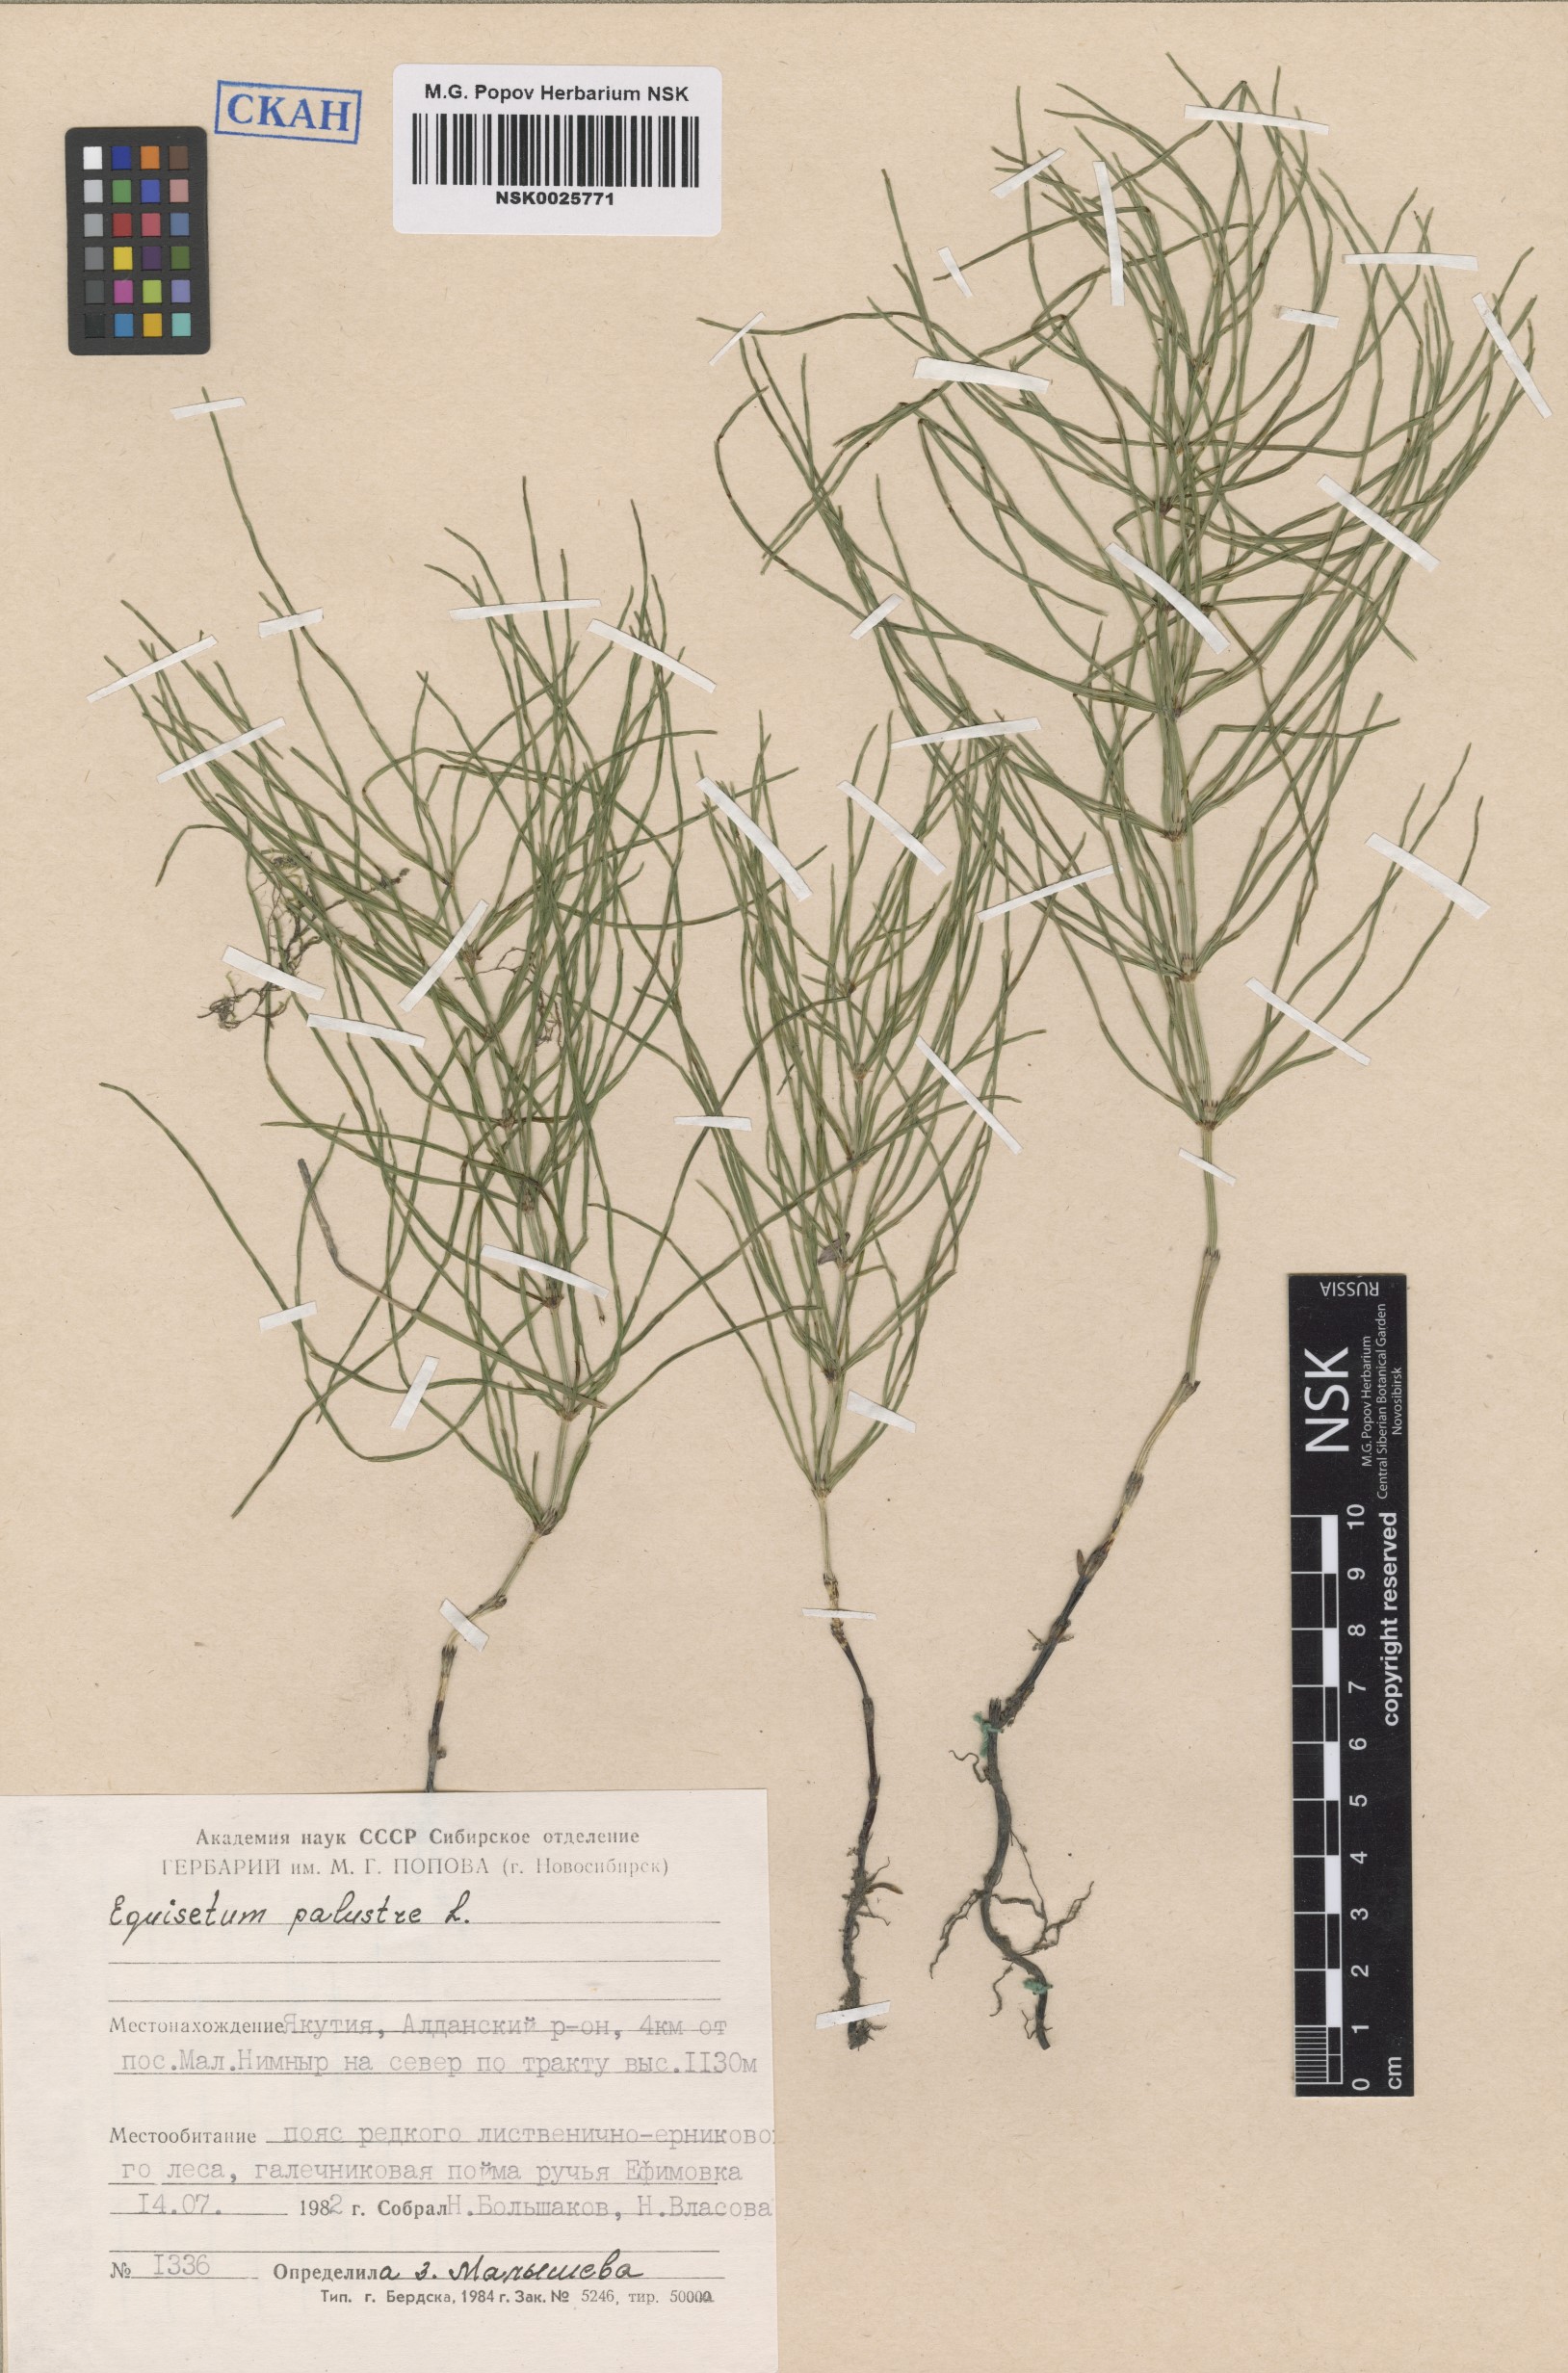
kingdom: Plantae
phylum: Tracheophyta
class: Polypodiopsida
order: Equisetales
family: Equisetaceae
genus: Equisetum
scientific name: Equisetum palustre
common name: Marsh horsetail
